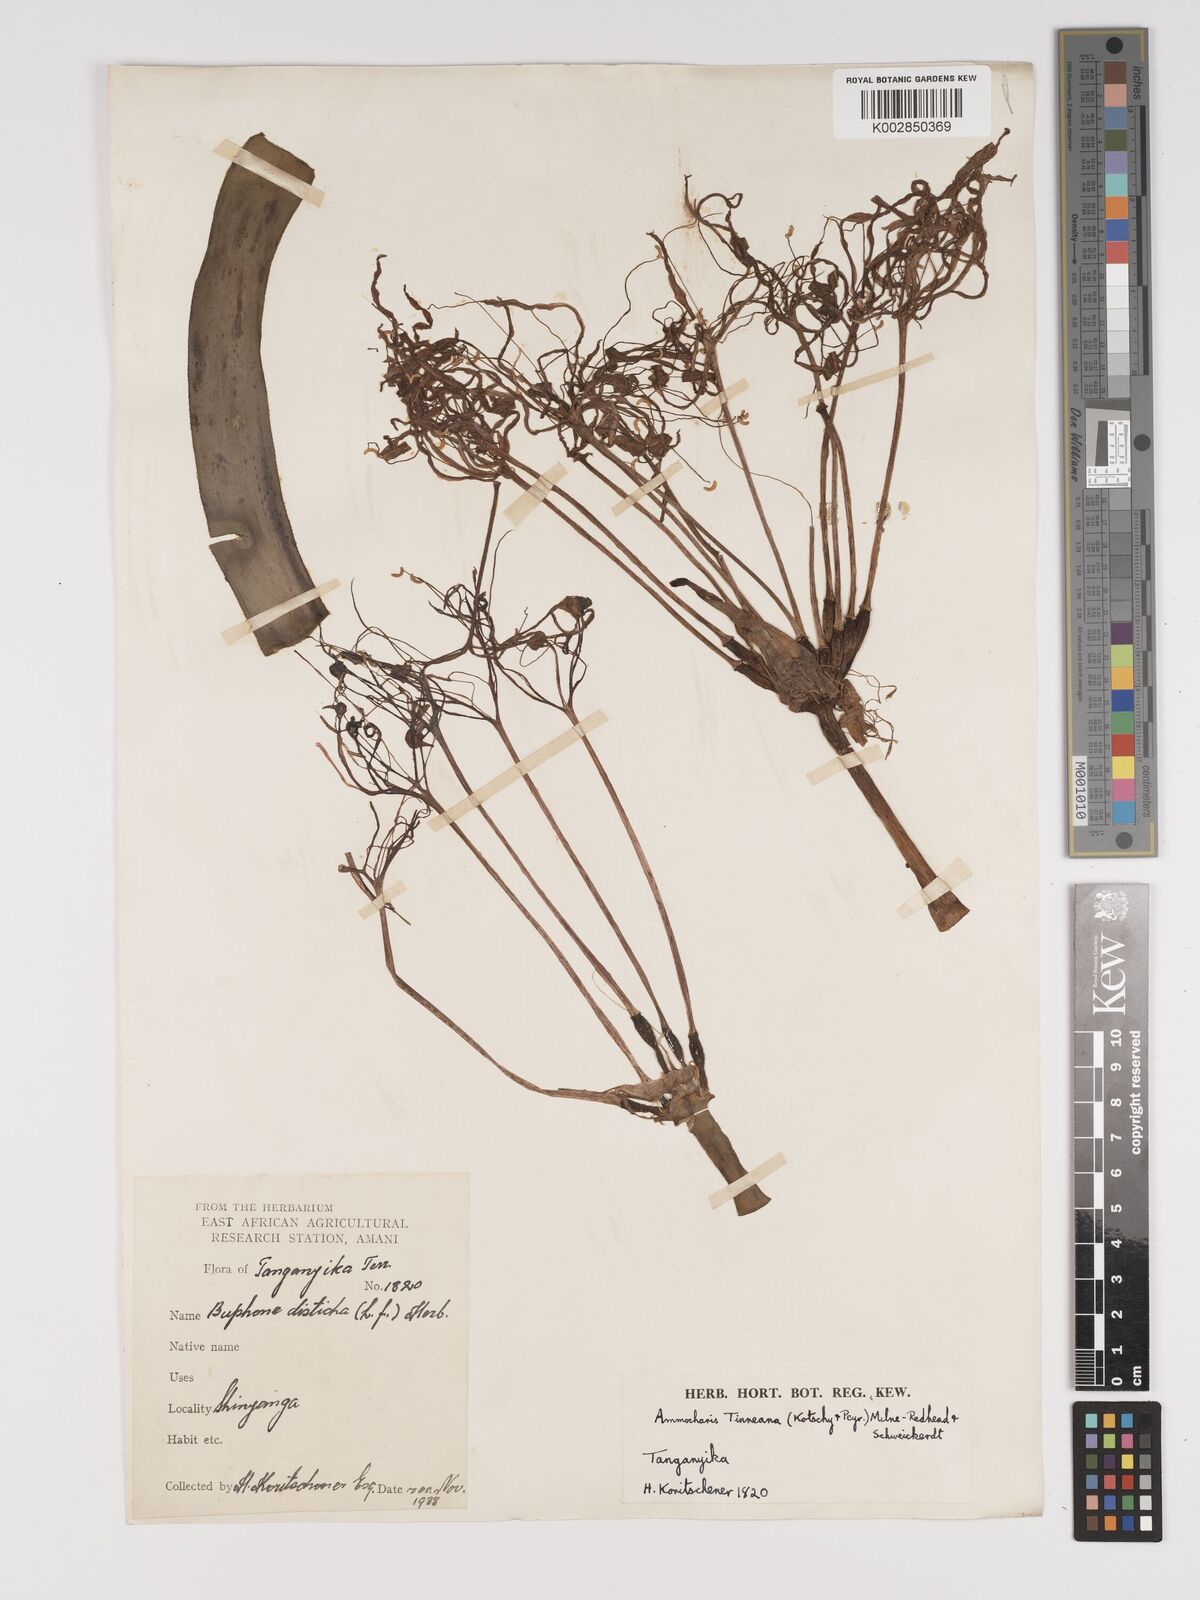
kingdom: Plantae
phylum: Tracheophyta
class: Liliopsida
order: Asparagales
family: Amaryllidaceae
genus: Ammocharis
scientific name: Ammocharis tinneana
